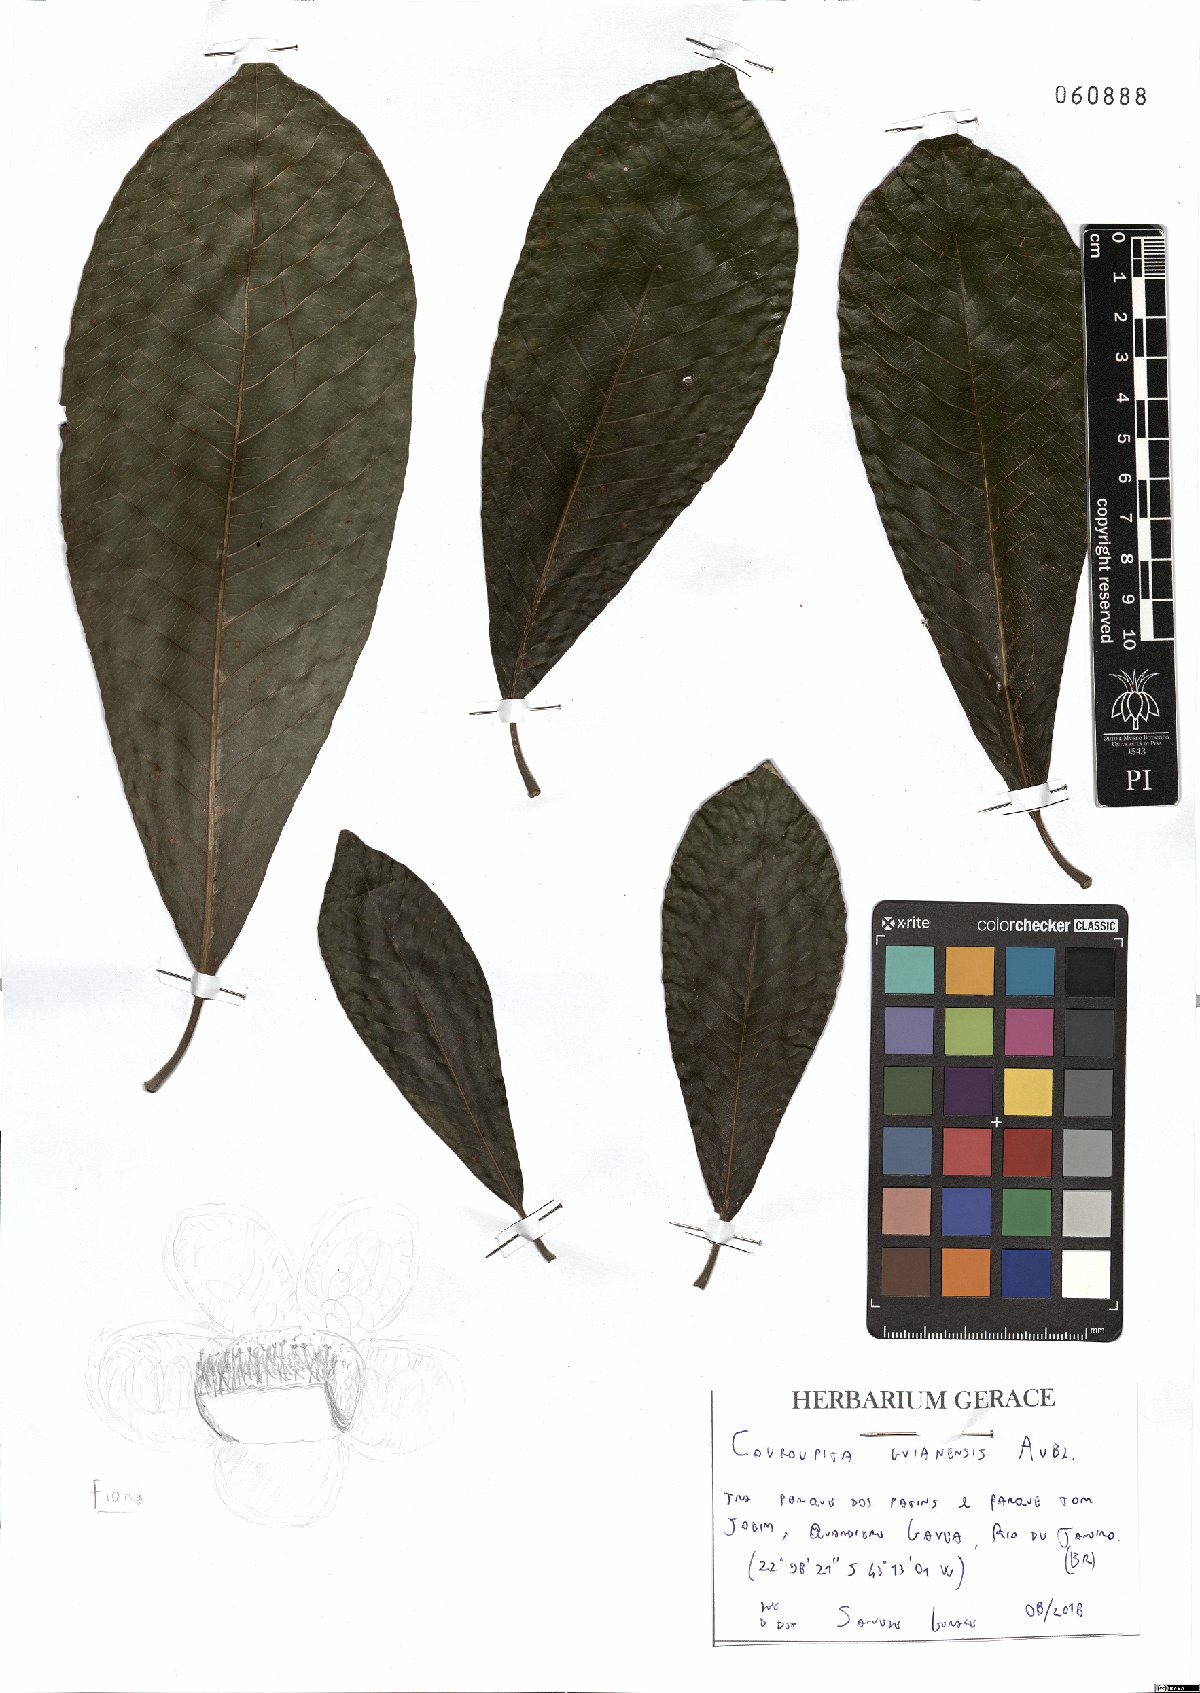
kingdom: Plantae
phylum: Tracheophyta
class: Magnoliopsida
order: Ericales
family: Lecythidaceae
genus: Couroupita
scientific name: Couroupita guianensis
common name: Cannonball tree
